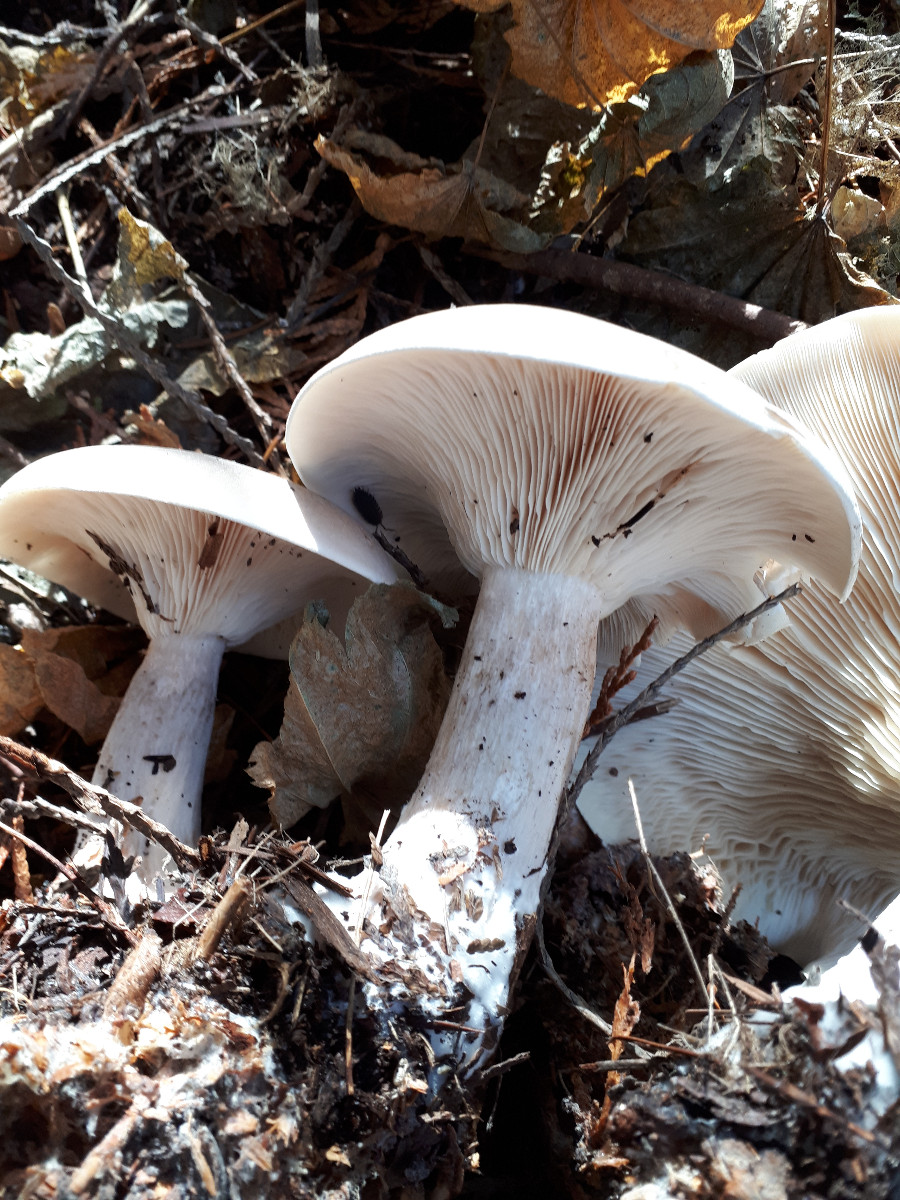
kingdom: Fungi
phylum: Basidiomycota
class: Agaricomycetes
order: Agaricales
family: Tricholomataceae
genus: Clitocybe
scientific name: Clitocybe nebularis
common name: tåge-tragthat
